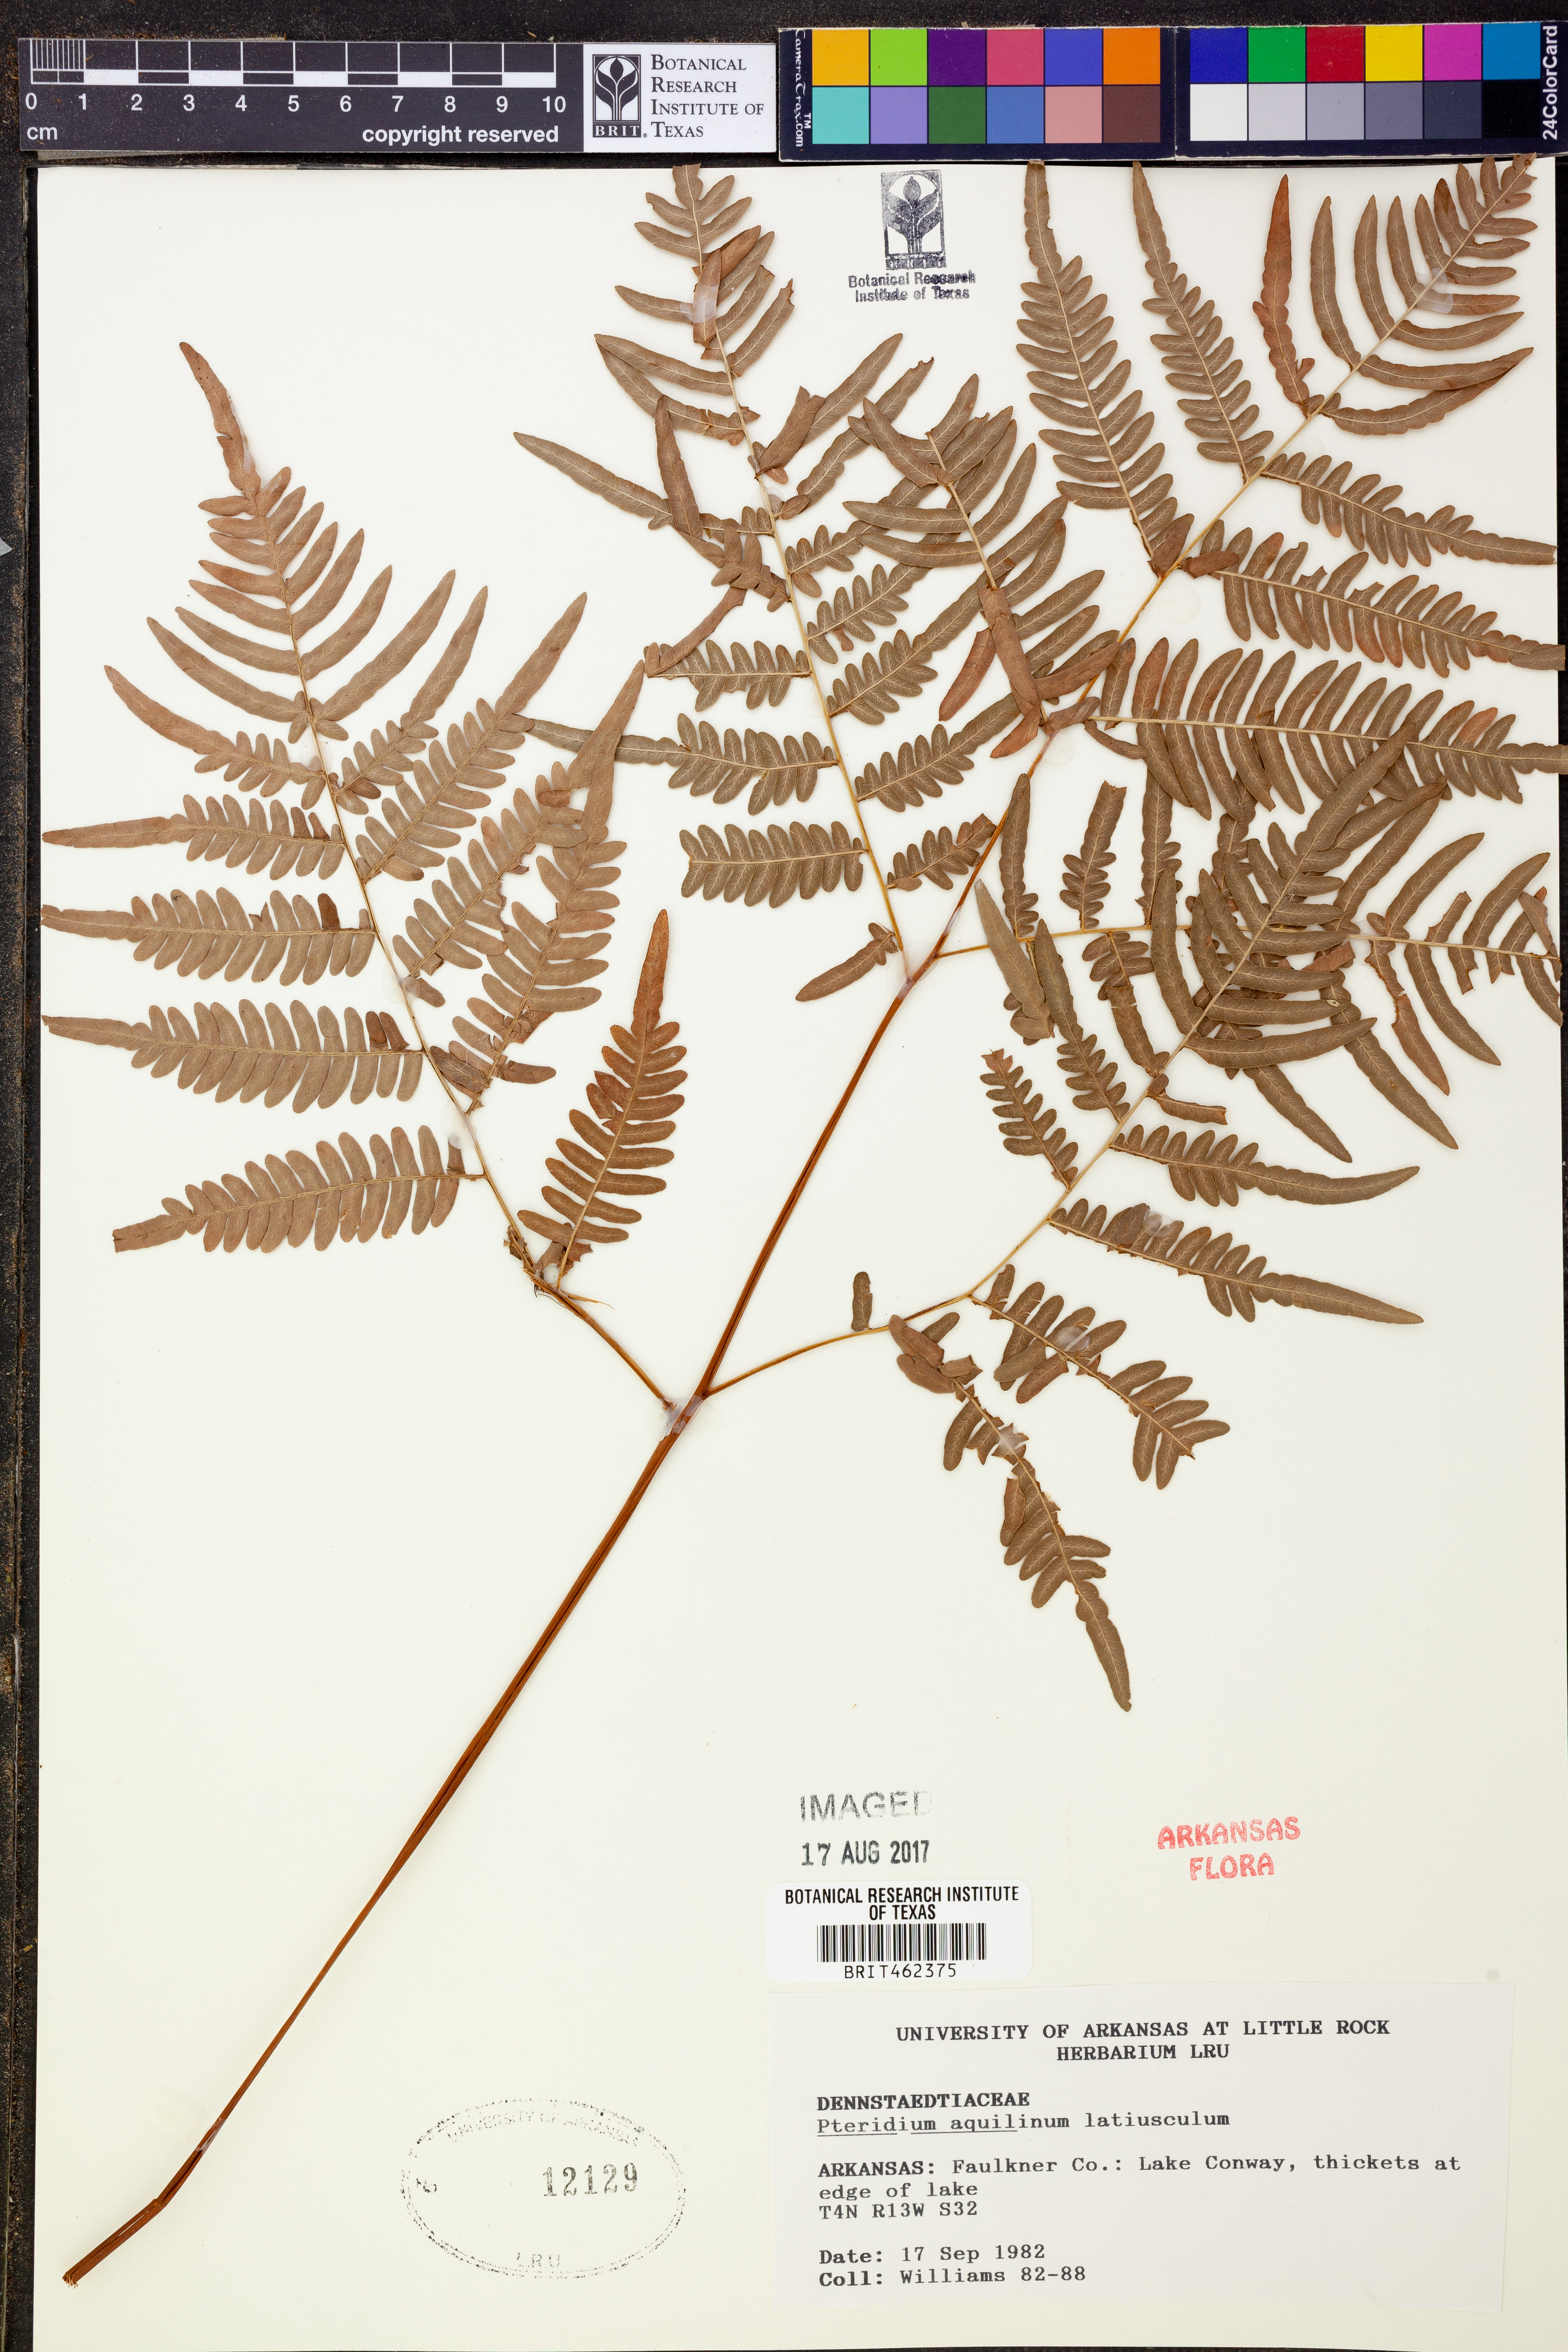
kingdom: Plantae
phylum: Tracheophyta
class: Polypodiopsida
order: Polypodiales
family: Dennstaedtiaceae
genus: Pteridium
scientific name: Pteridium aquilinum
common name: Bracken
